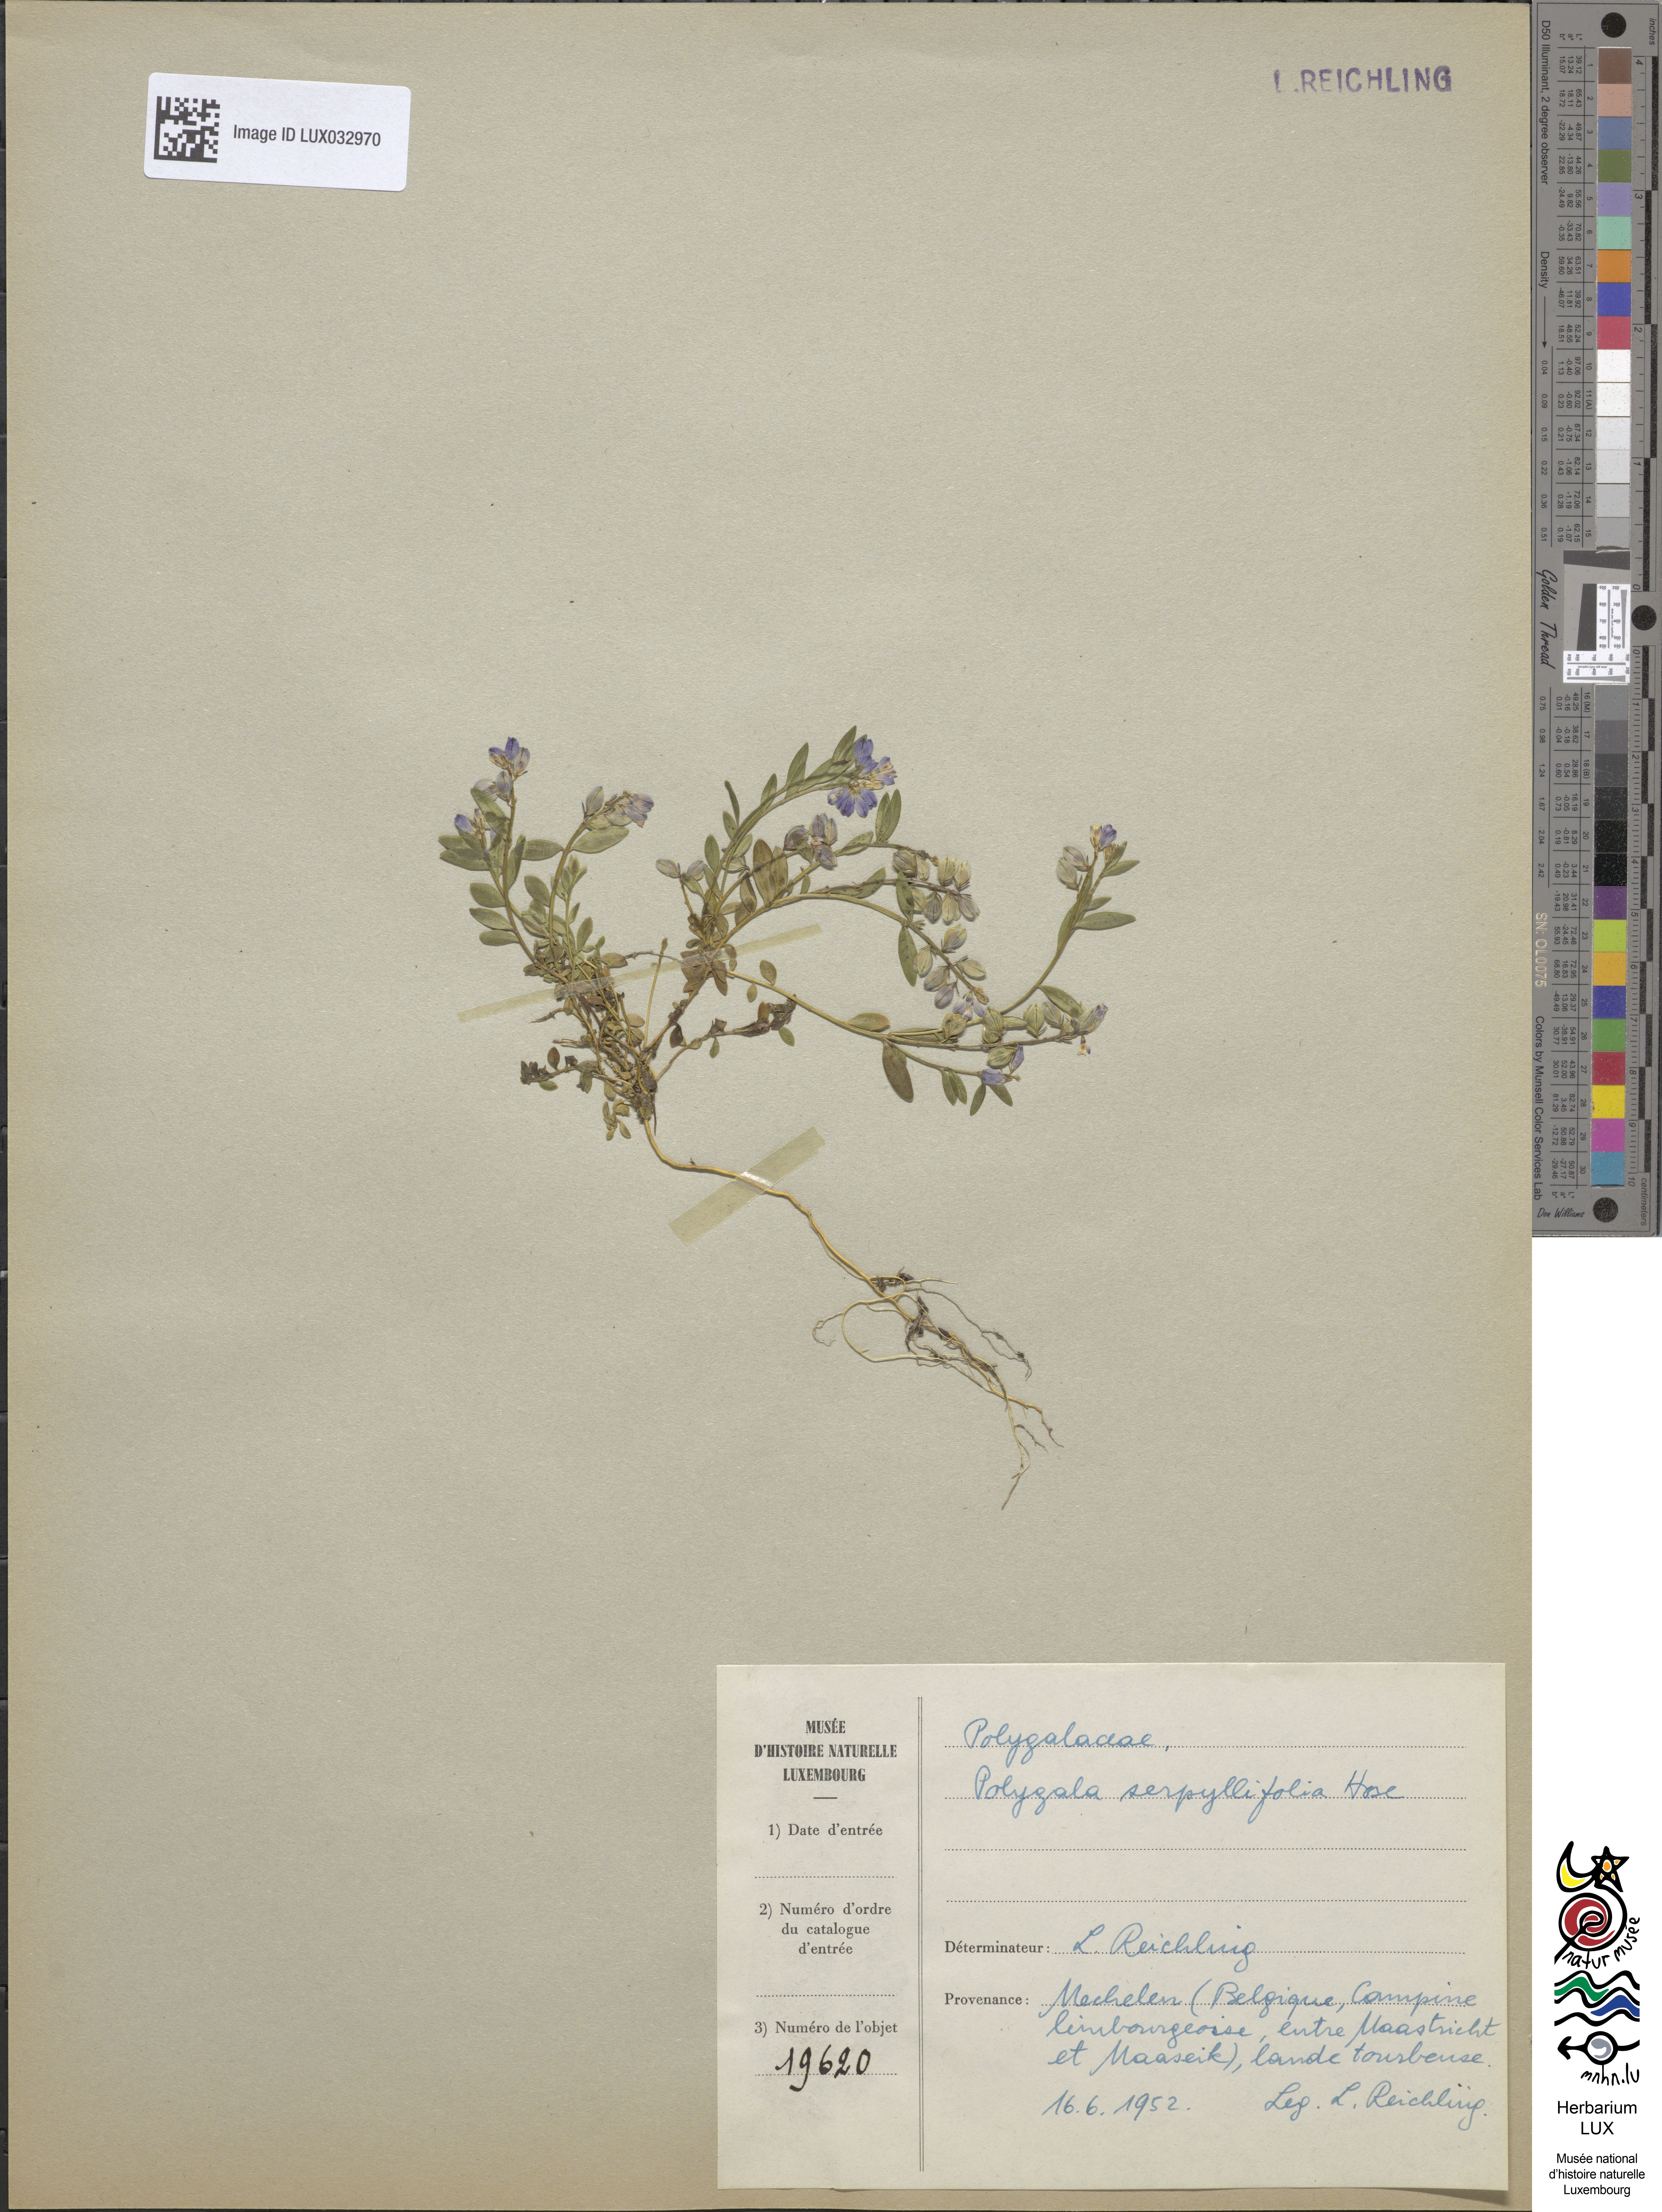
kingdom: Plantae
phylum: Tracheophyta
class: Magnoliopsida
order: Fabales
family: Polygalaceae
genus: Polygala
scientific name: Polygala serpyllifolia
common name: Heath milkwort
